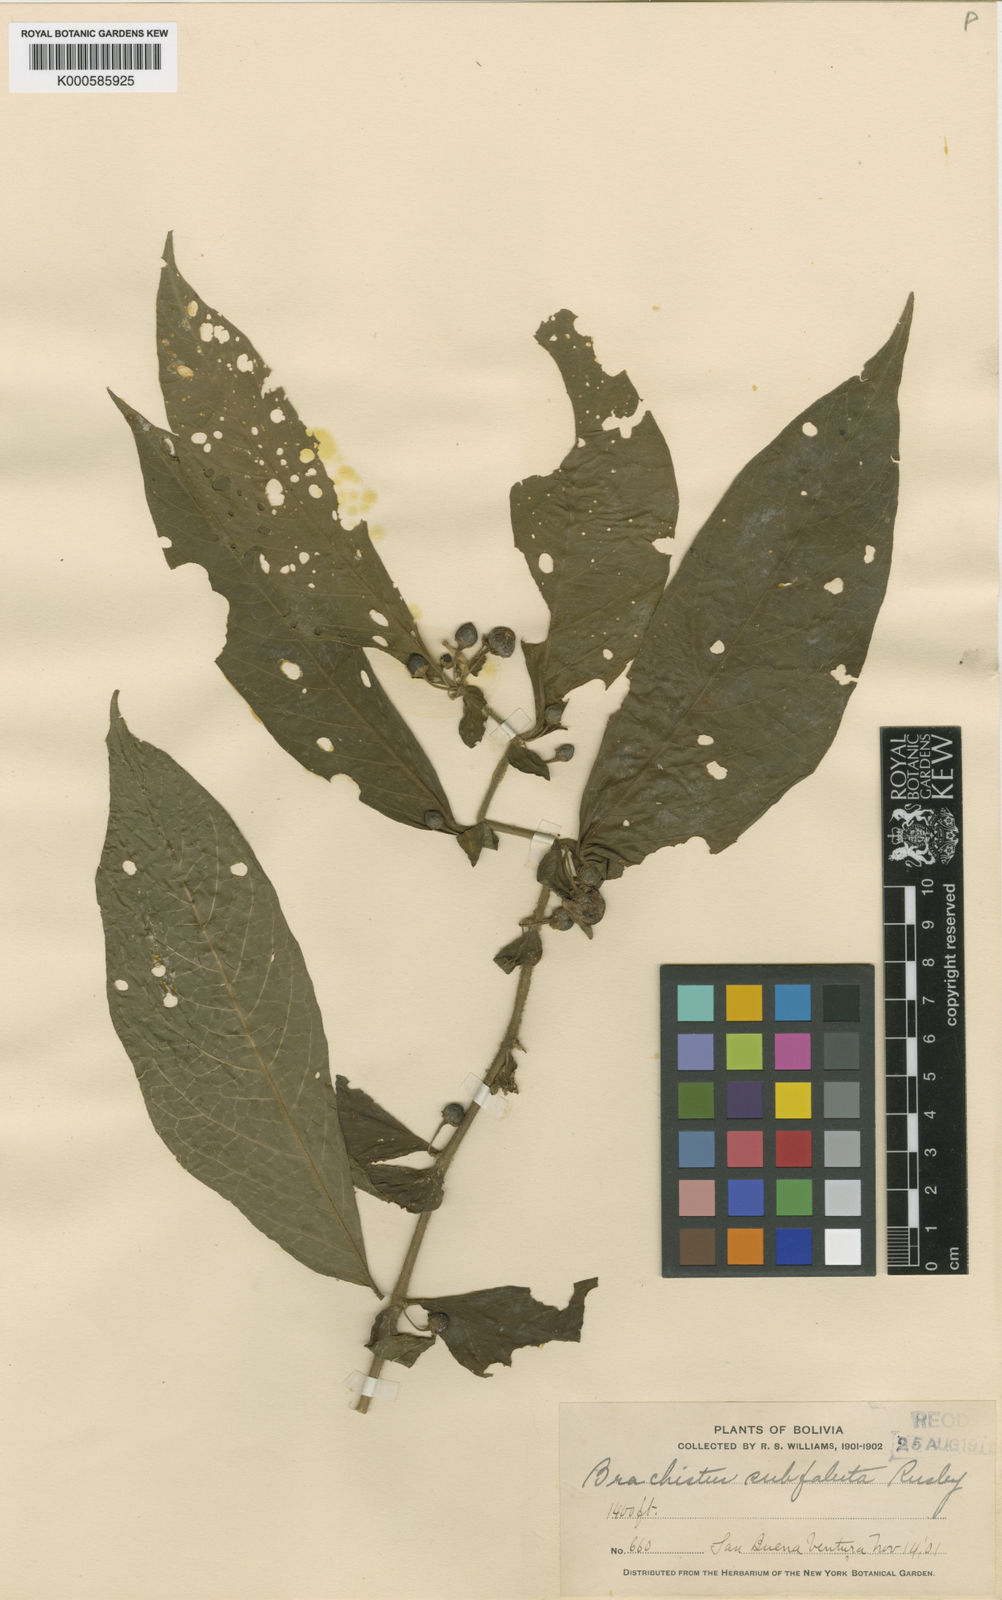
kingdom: Plantae
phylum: Tracheophyta
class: Magnoliopsida
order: Solanales
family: Solanaceae
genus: Lycianthes
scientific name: Lycianthes inaequilatera
